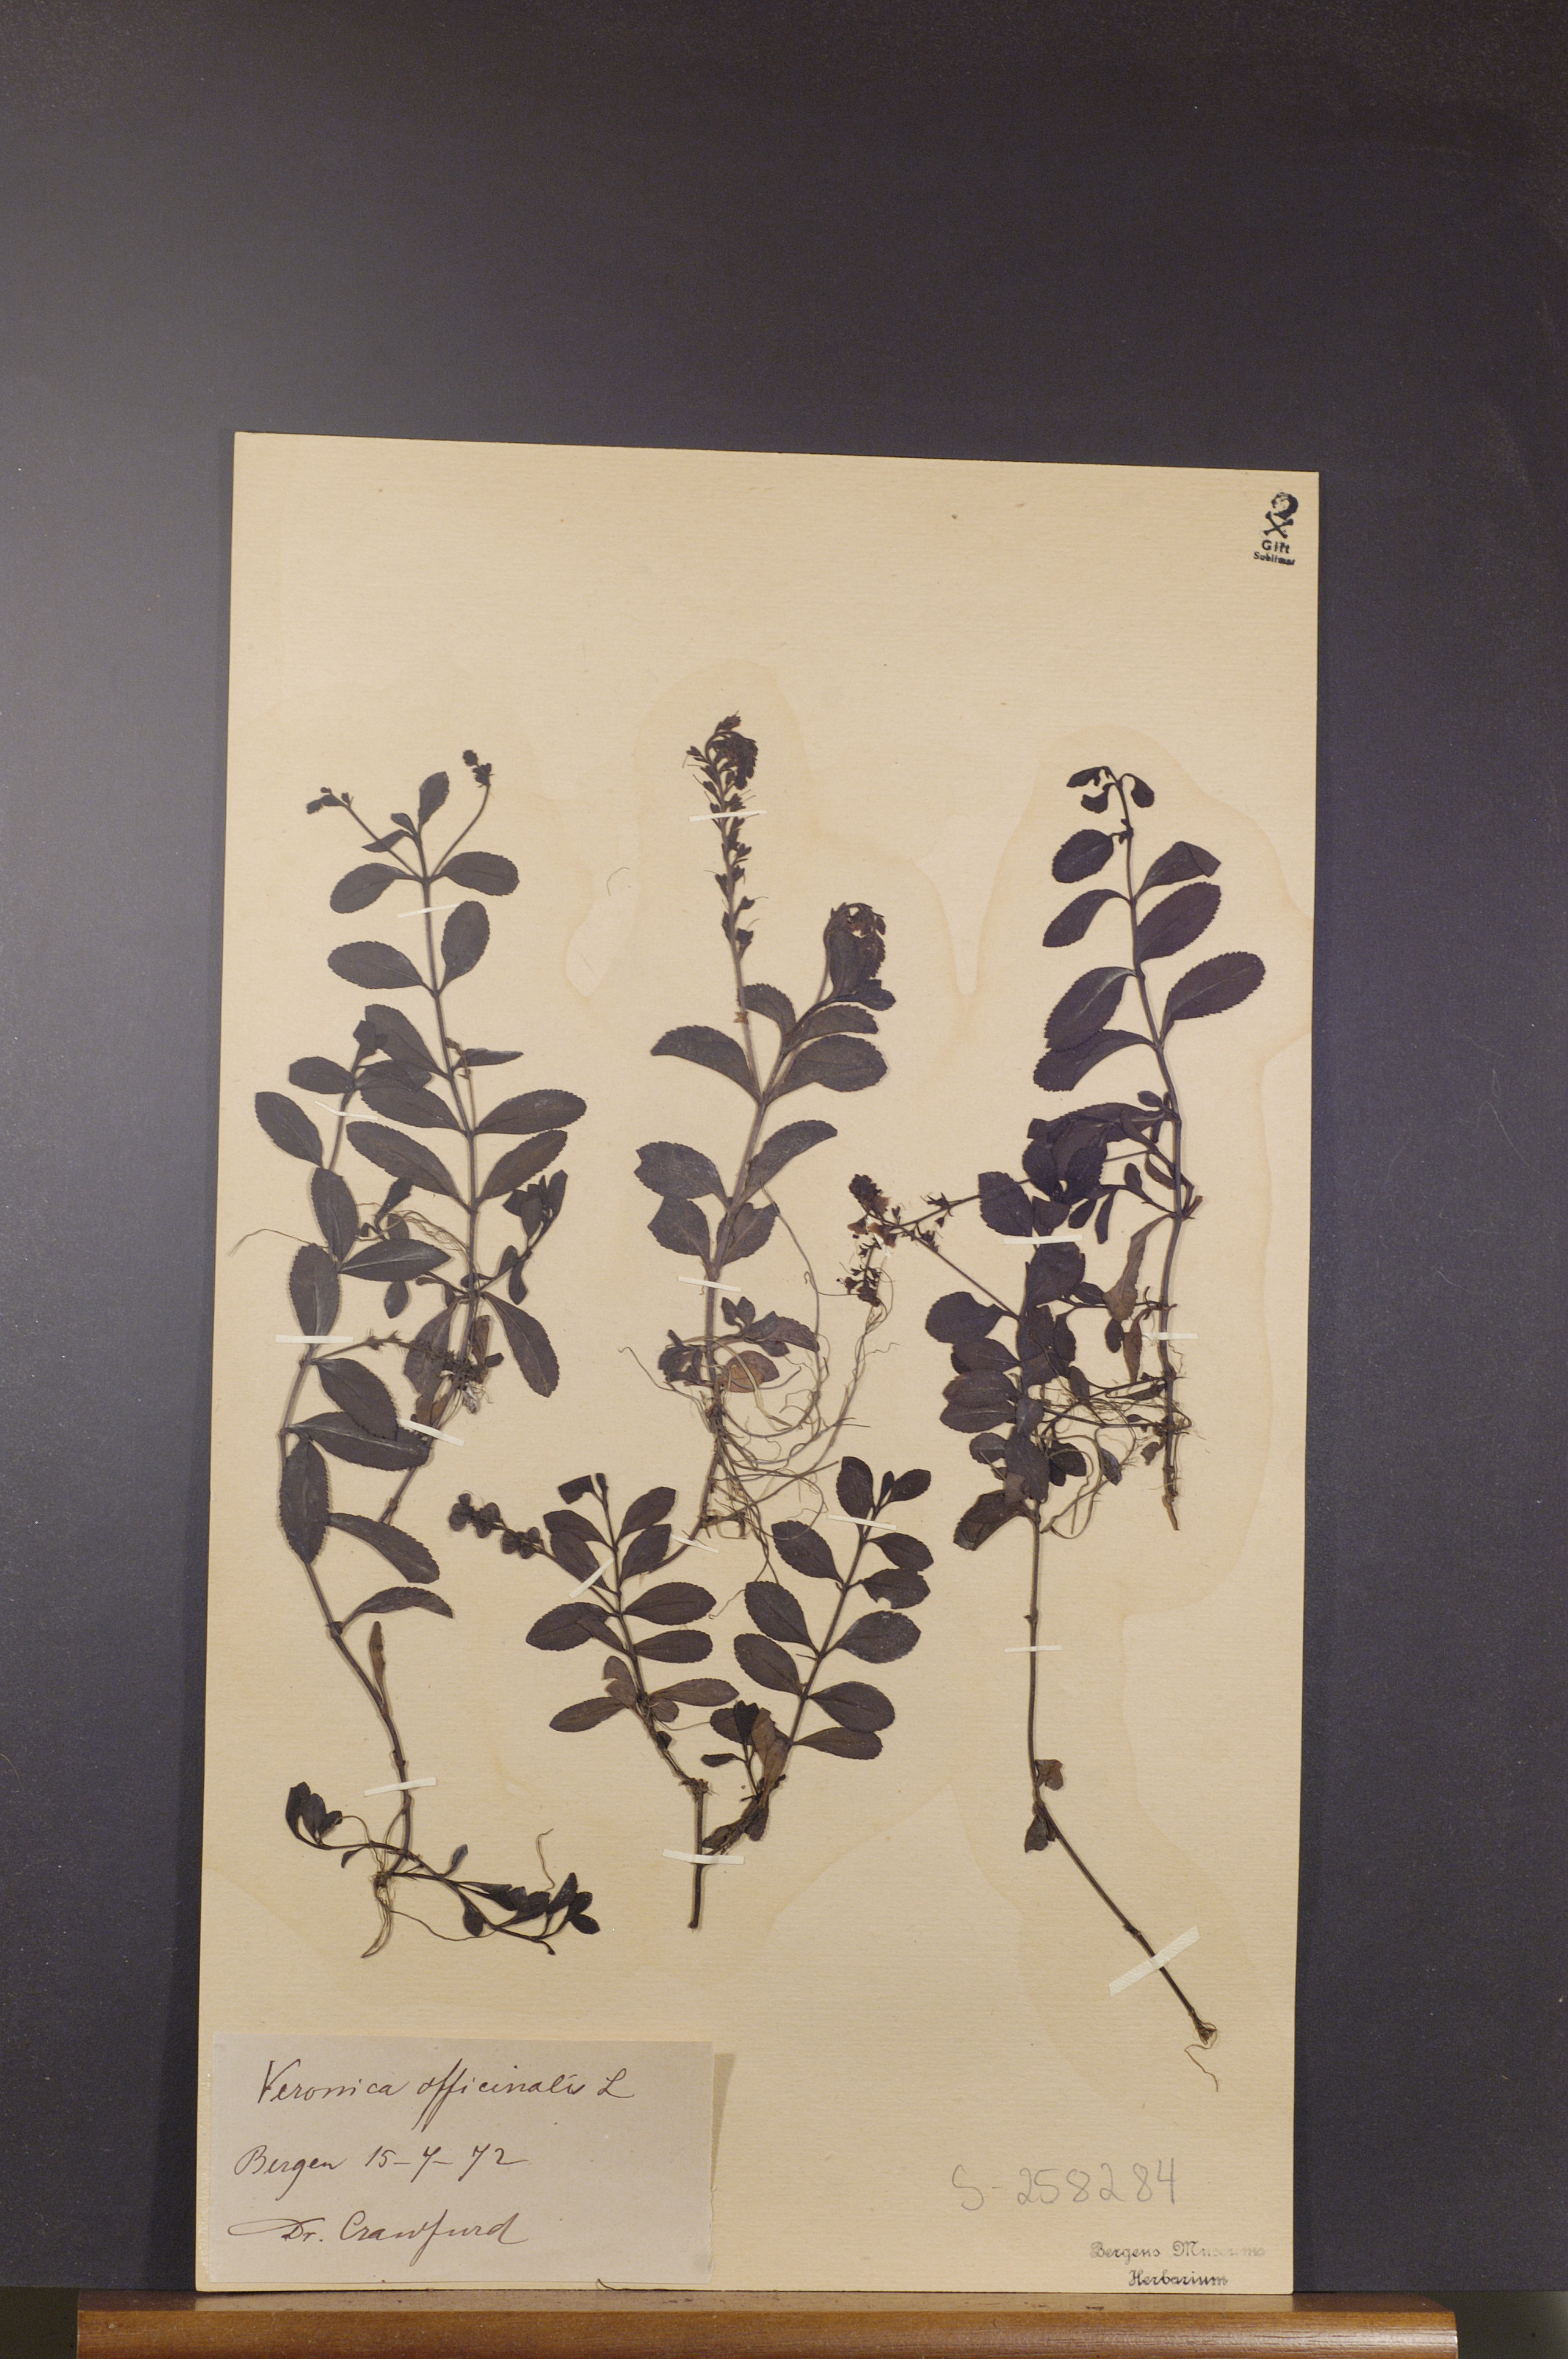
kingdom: Plantae
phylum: Tracheophyta
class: Magnoliopsida
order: Lamiales
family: Plantaginaceae
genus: Veronica
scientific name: Veronica officinalis
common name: Common speedwell
